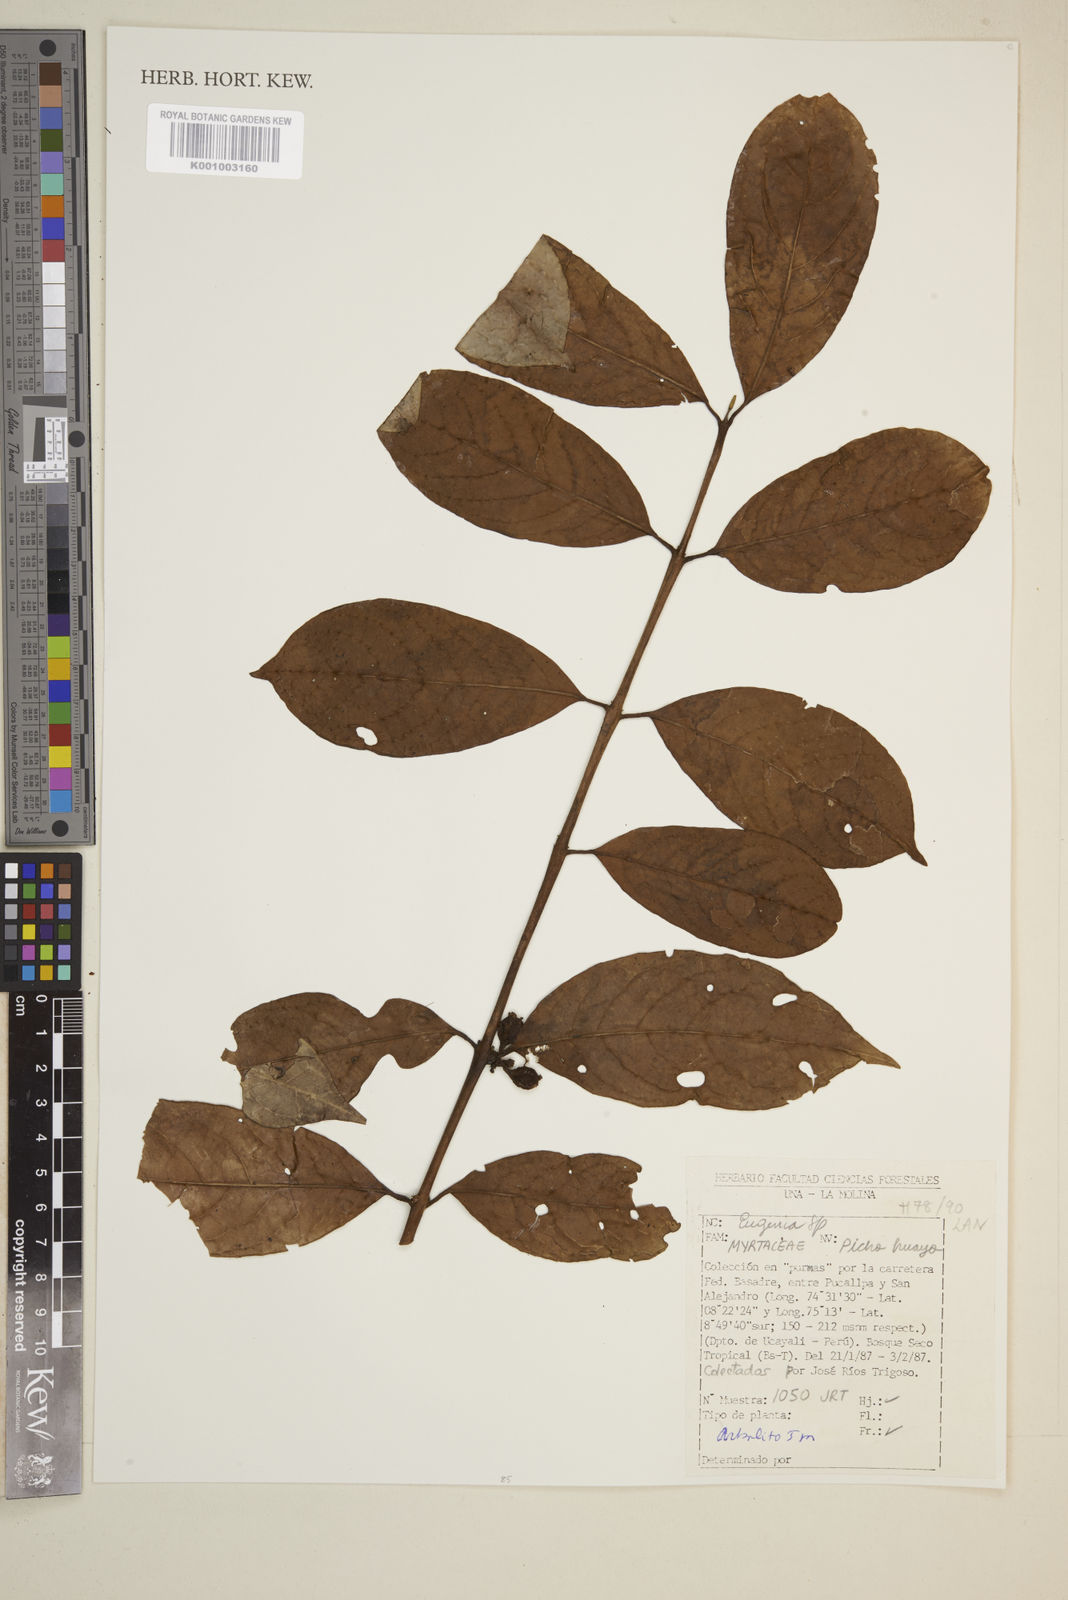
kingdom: Plantae
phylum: Tracheophyta
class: Magnoliopsida
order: Myrtales
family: Myrtaceae
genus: Eugenia
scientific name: Eugenia
